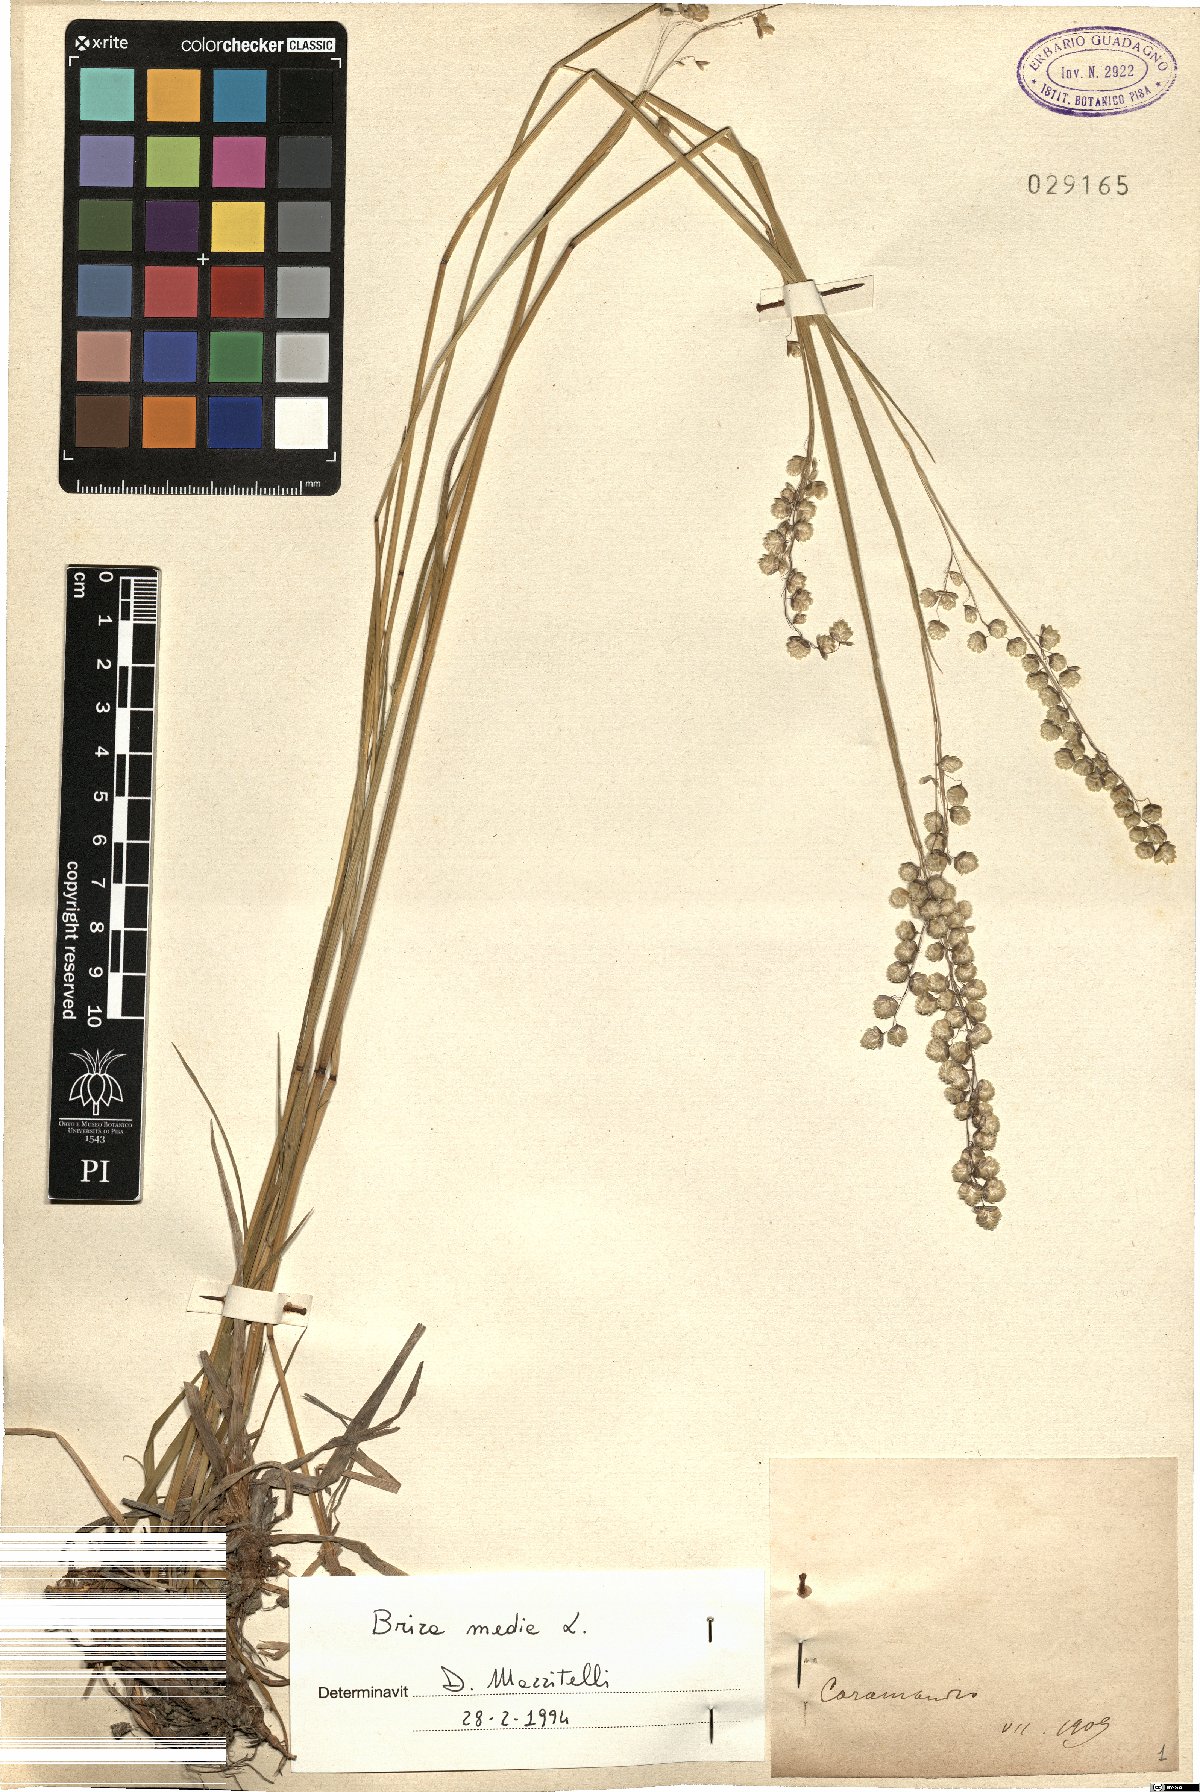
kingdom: Plantae
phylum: Tracheophyta
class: Liliopsida
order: Poales
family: Poaceae
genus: Briza
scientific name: Briza media
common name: Quaking grass
